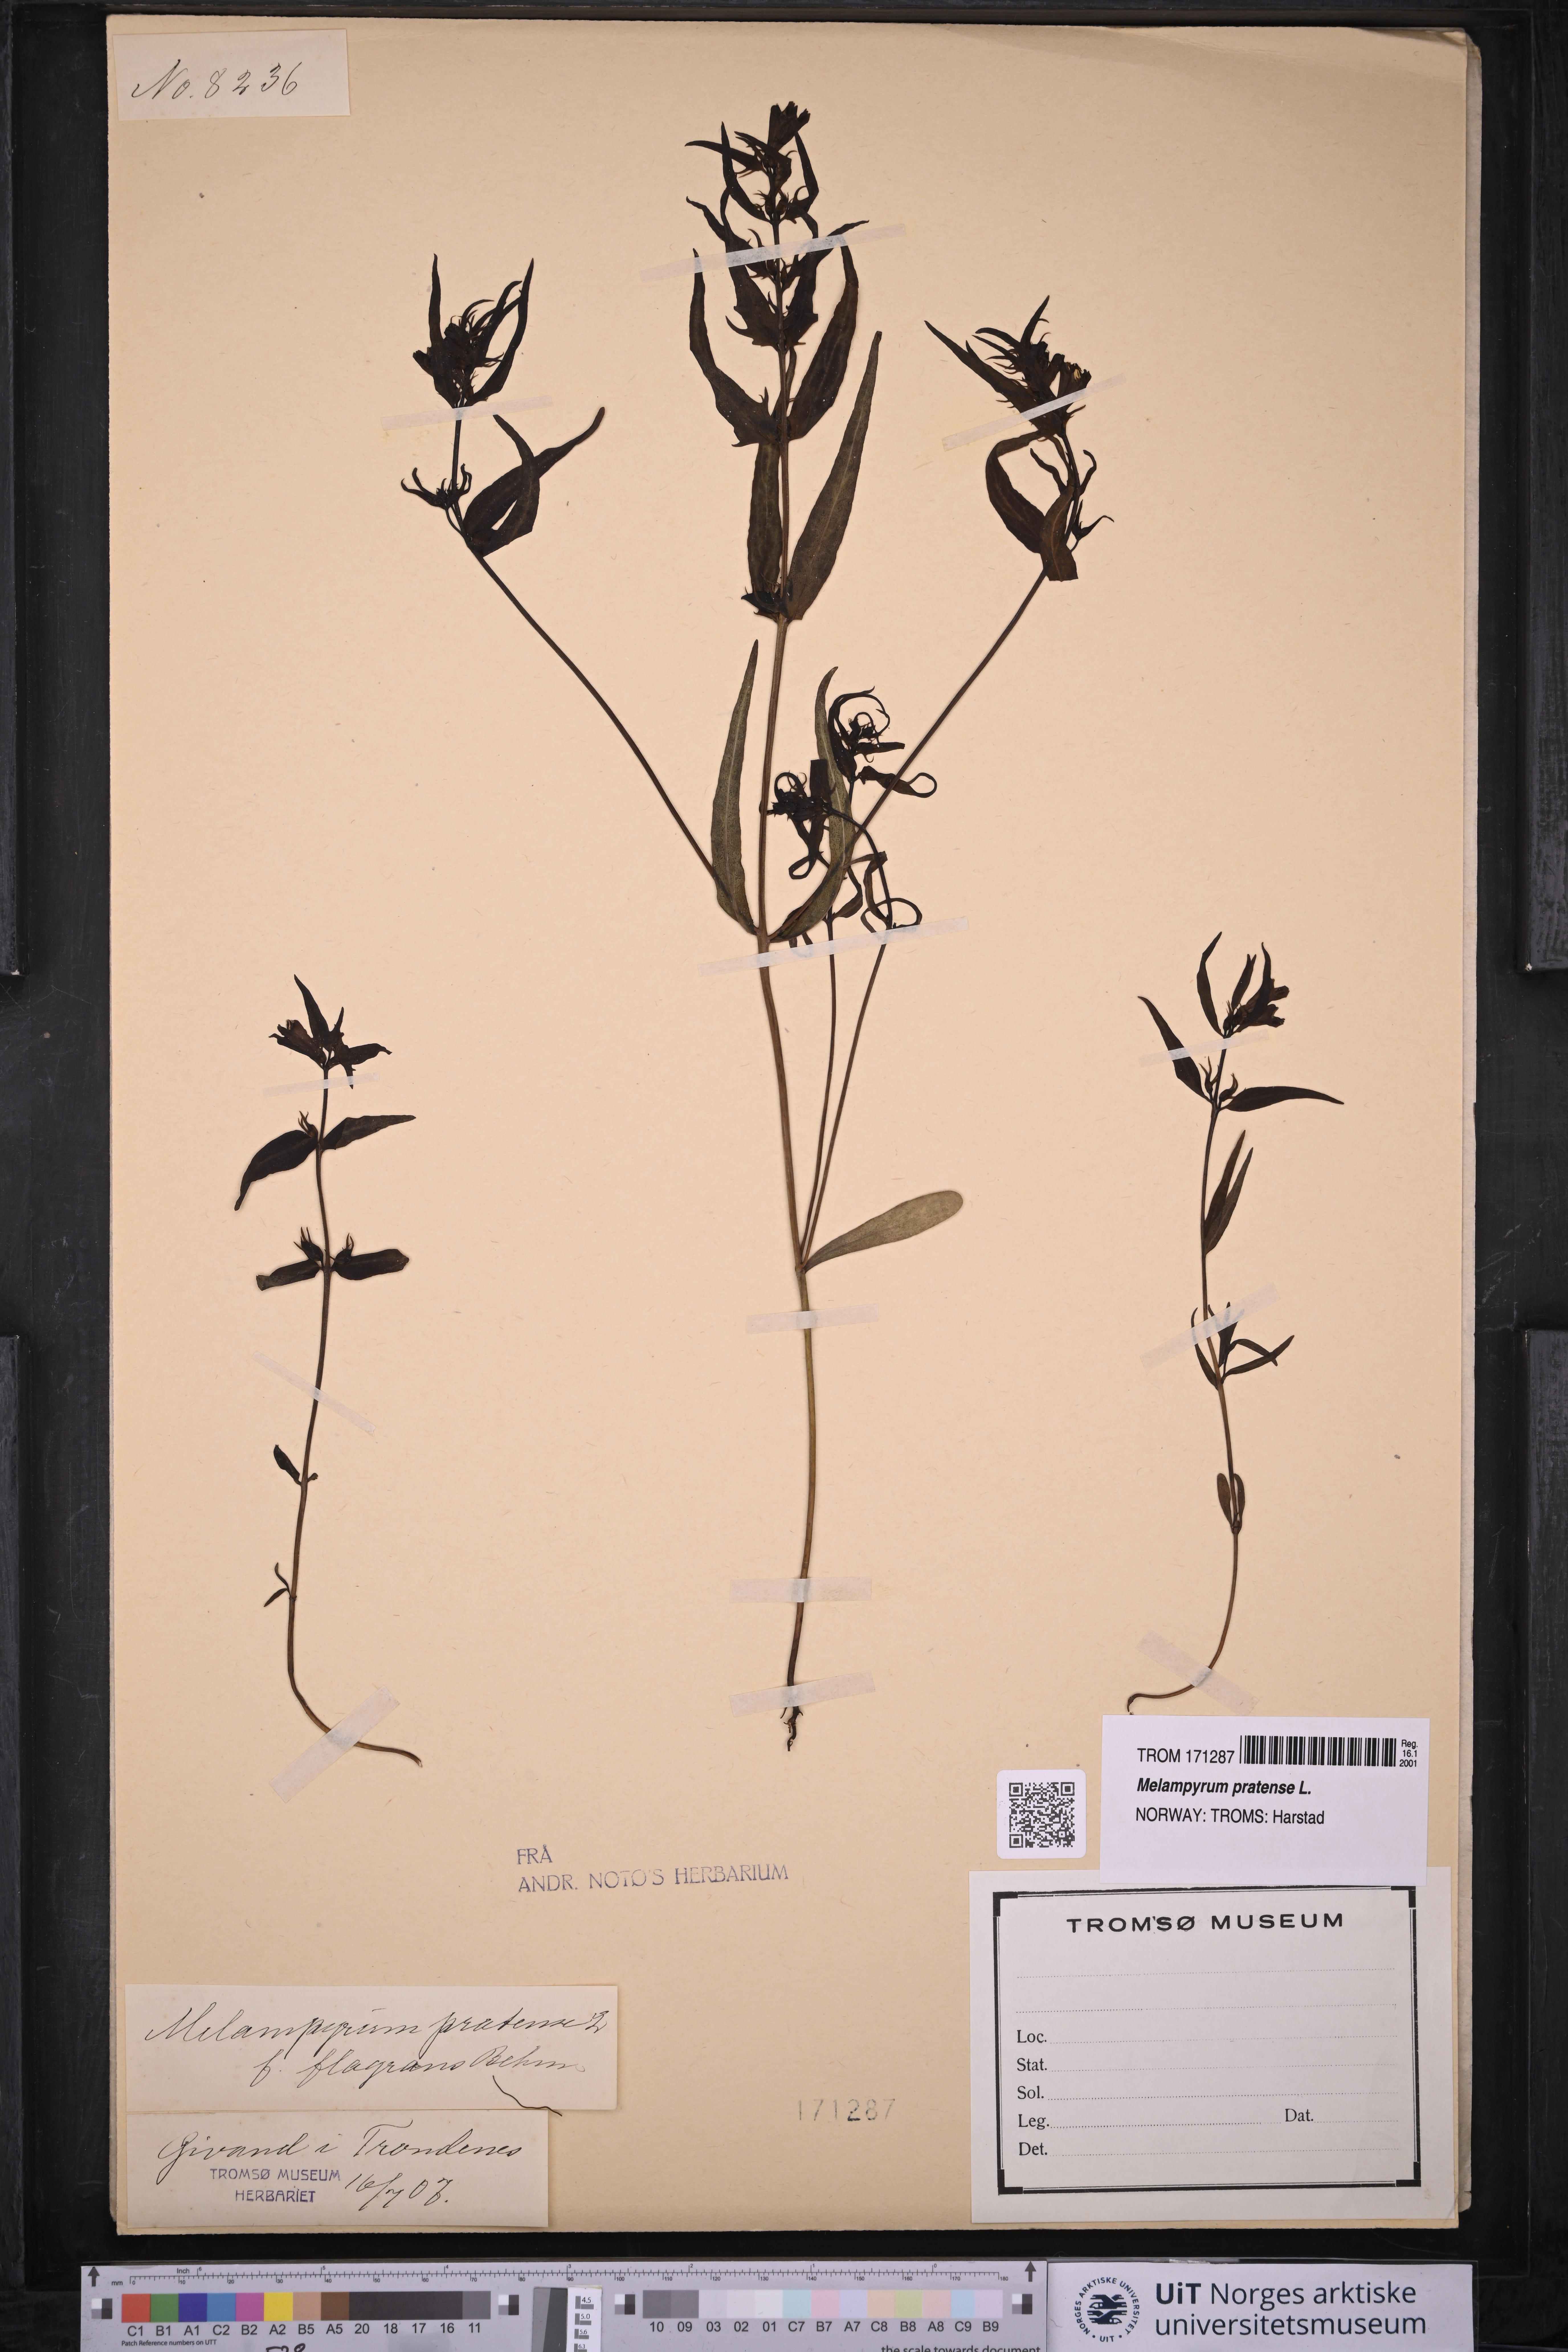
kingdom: Plantae
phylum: Tracheophyta
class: Magnoliopsida
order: Lamiales
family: Orobanchaceae
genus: Melampyrum
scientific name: Melampyrum pratense
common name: Common cow-wheat
